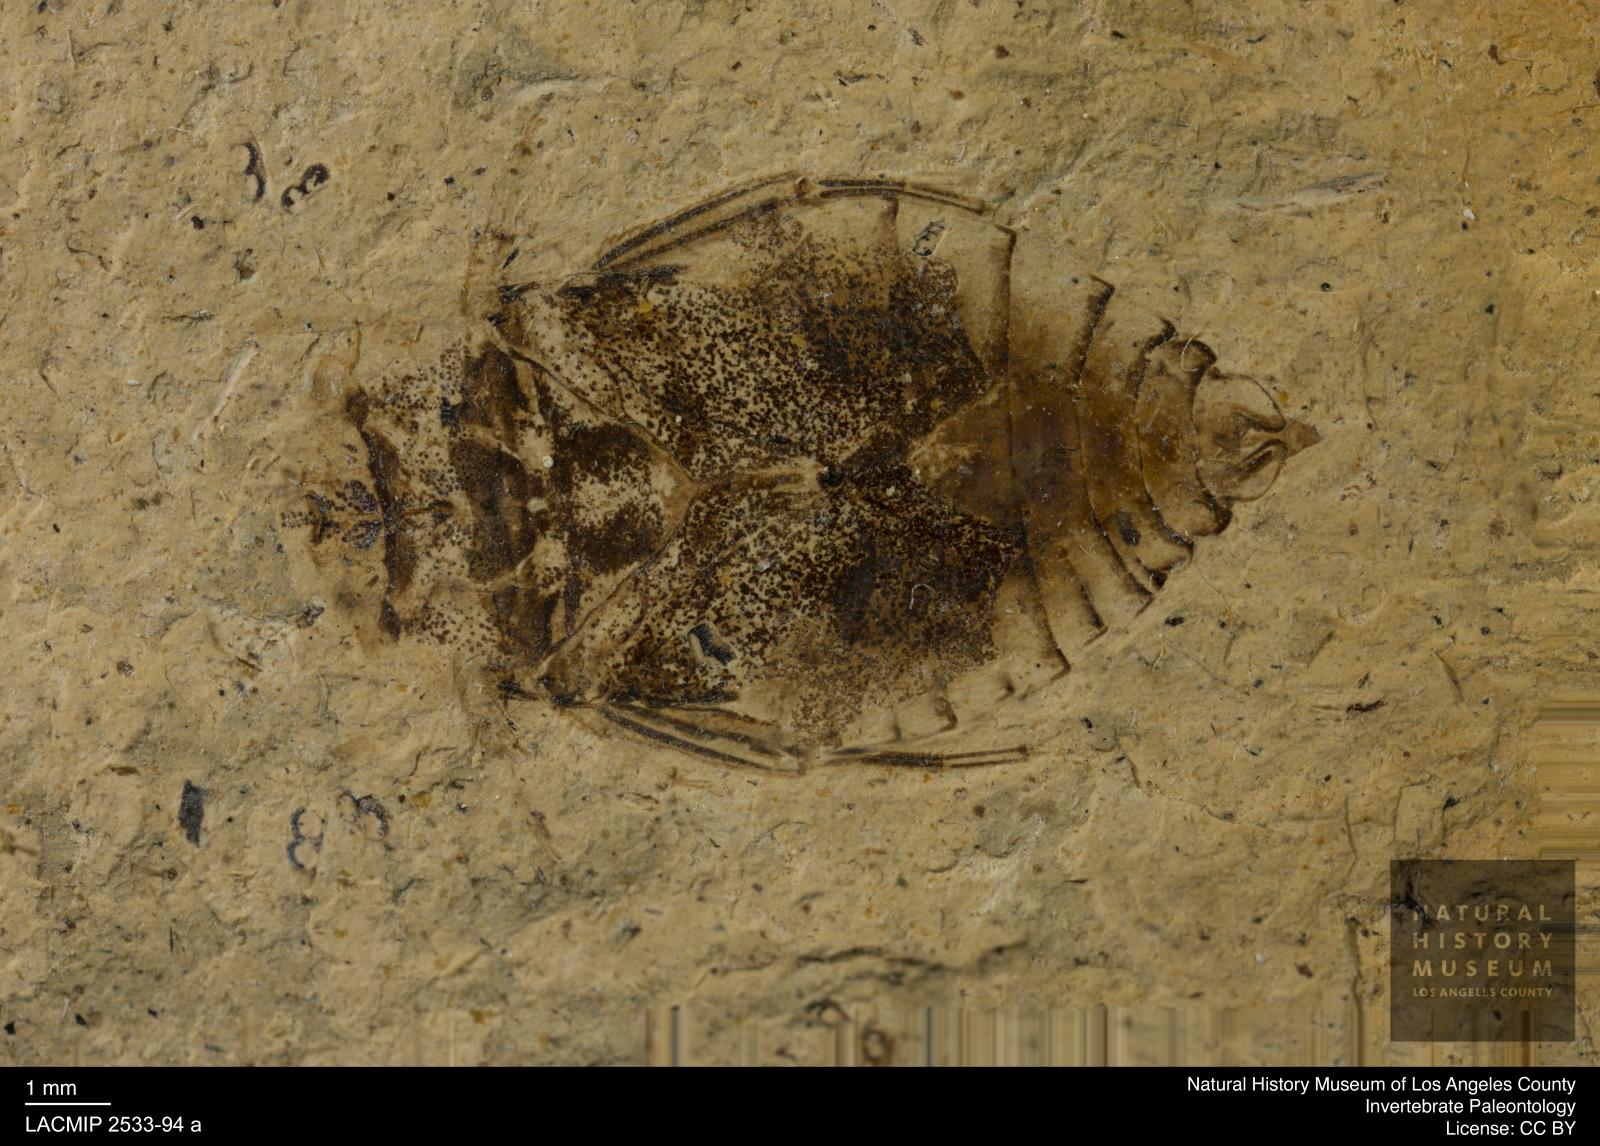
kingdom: Animalia
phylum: Arthropoda
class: Insecta
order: Hemiptera
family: Naucoridae
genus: Naucoris
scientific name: Naucoris rottensis
